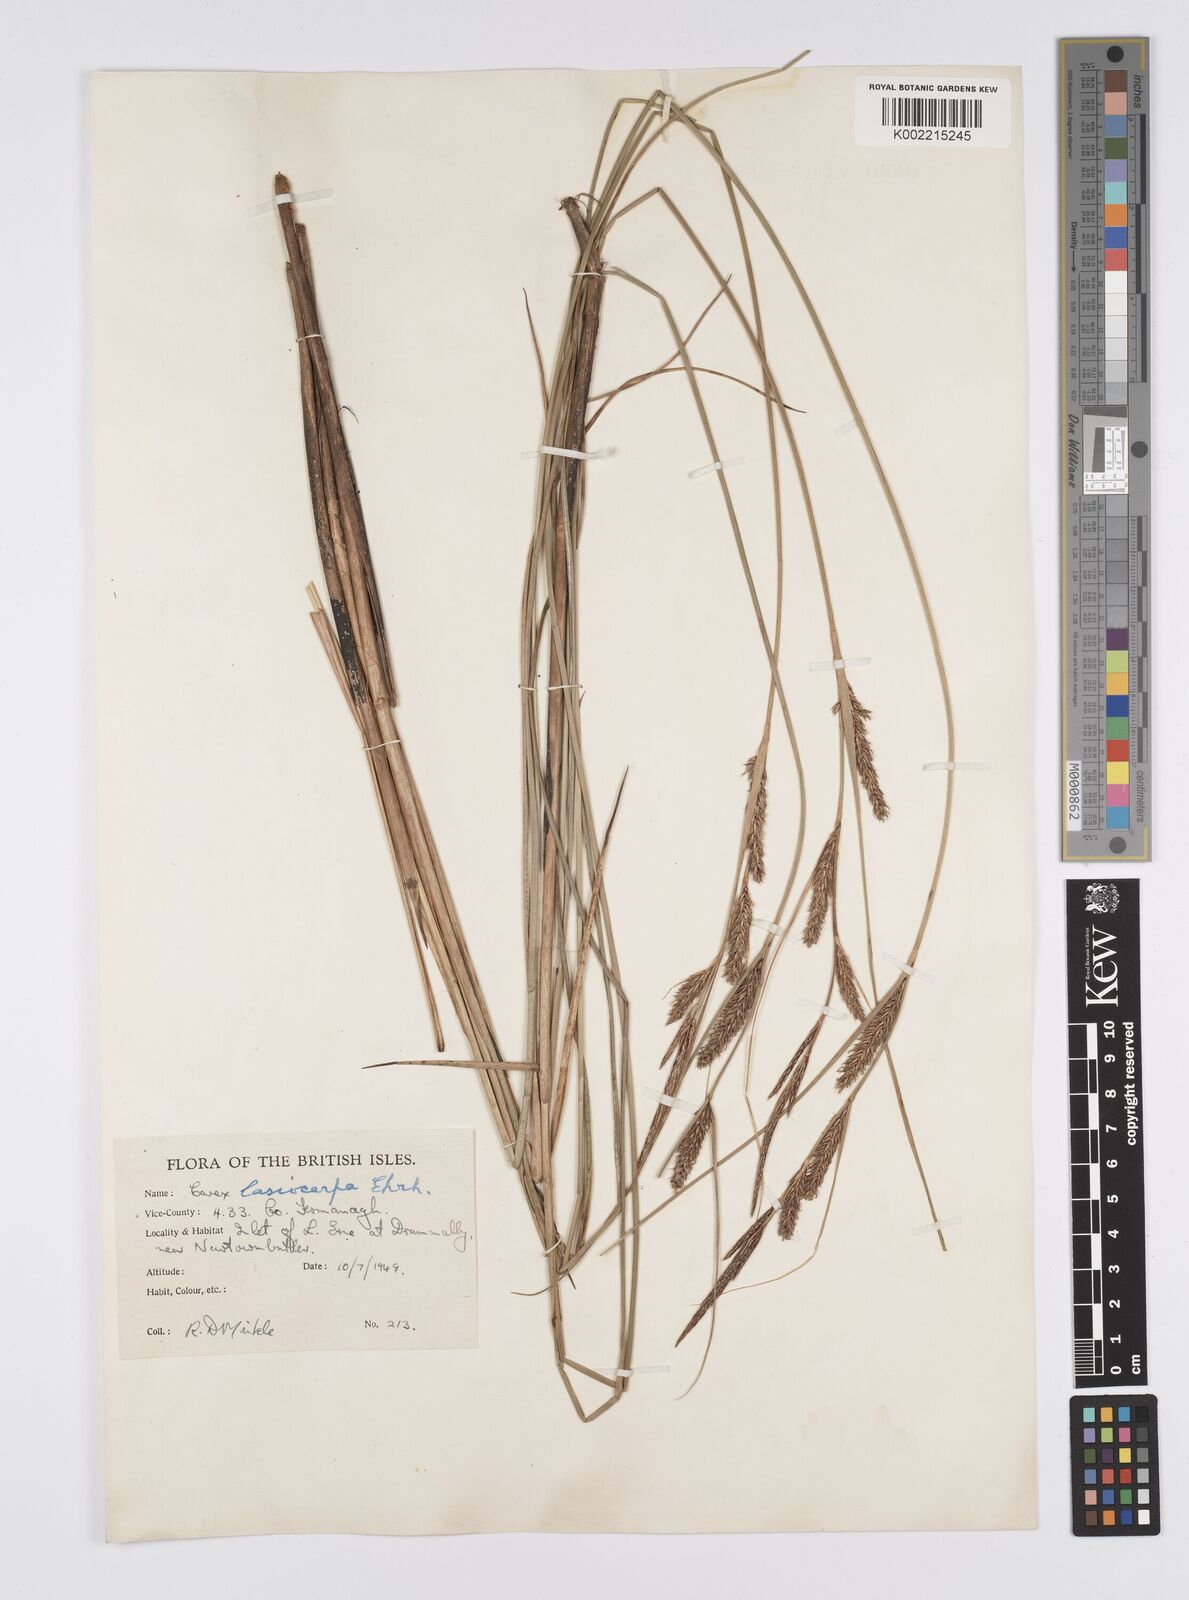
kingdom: Plantae
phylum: Tracheophyta
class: Liliopsida
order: Poales
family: Cyperaceae
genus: Carex
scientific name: Carex lasiocarpa
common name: Slender sedge
